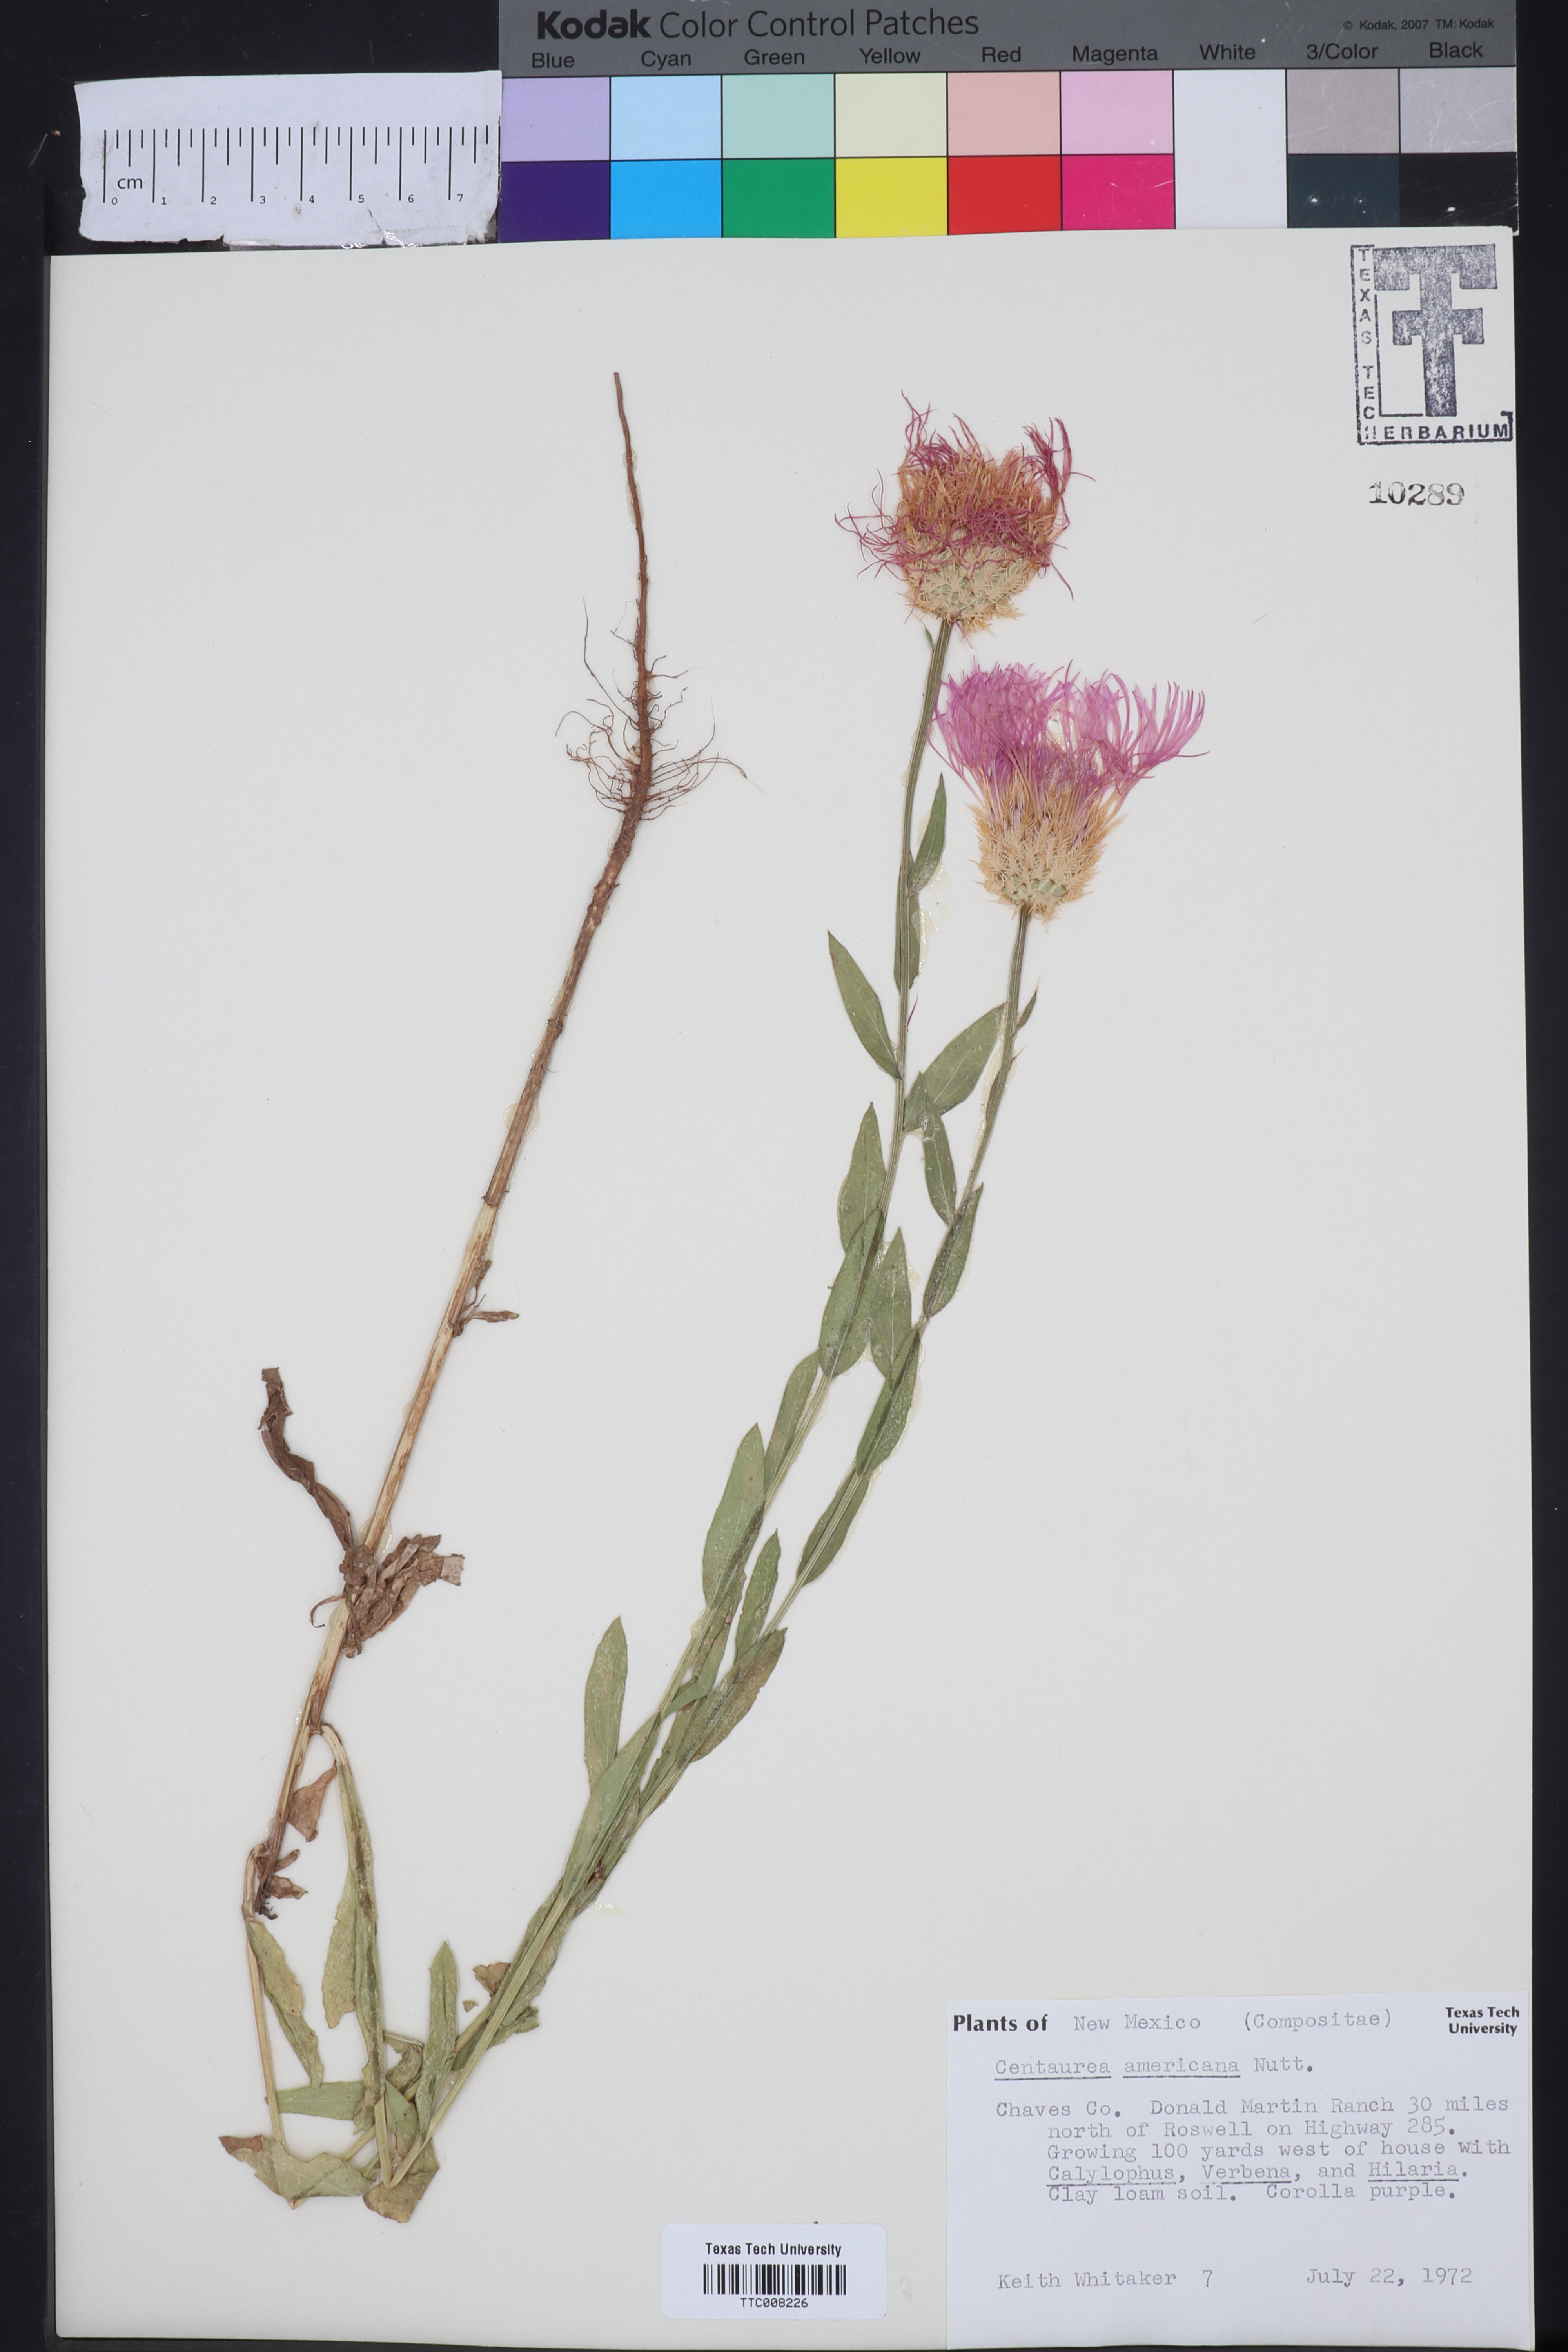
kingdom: Plantae
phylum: Tracheophyta
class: Magnoliopsida
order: Asterales
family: Asteraceae
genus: Plectocephalus
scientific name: Plectocephalus americanus
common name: American basket-flower
